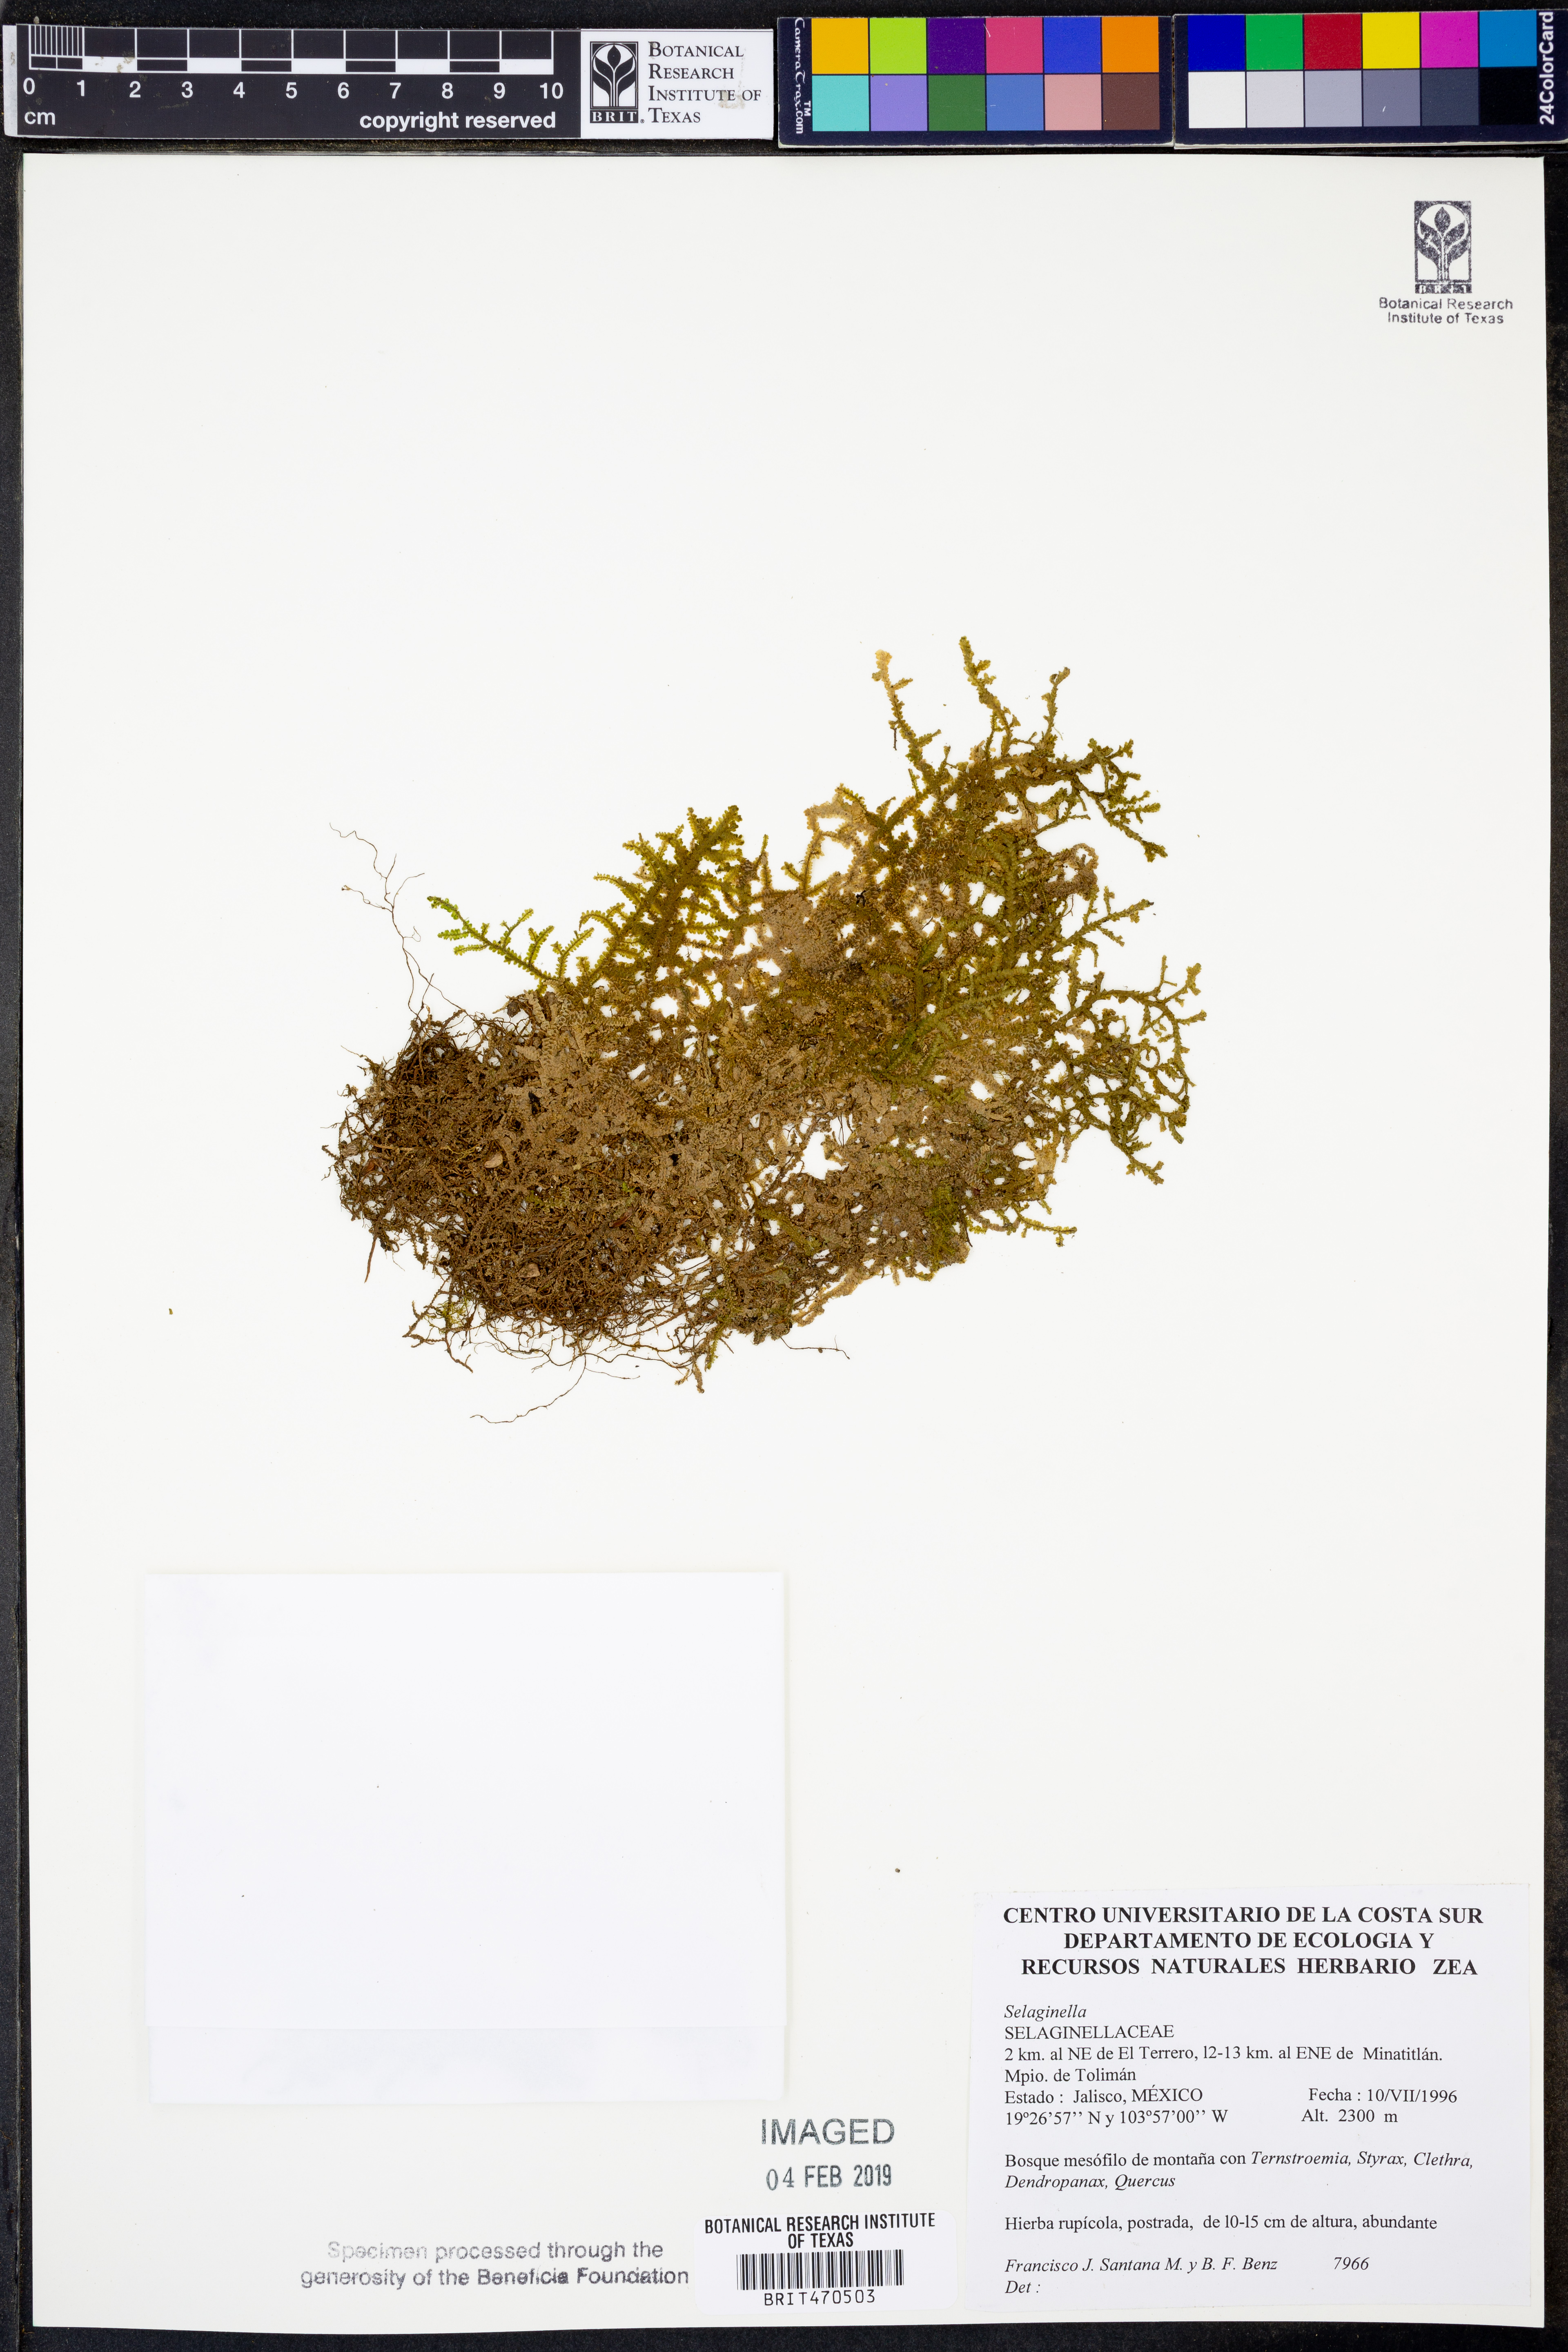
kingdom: Plantae
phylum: Tracheophyta
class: Lycopodiopsida
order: Selaginellales
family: Selaginellaceae
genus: Selaginella
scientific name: Selaginella
